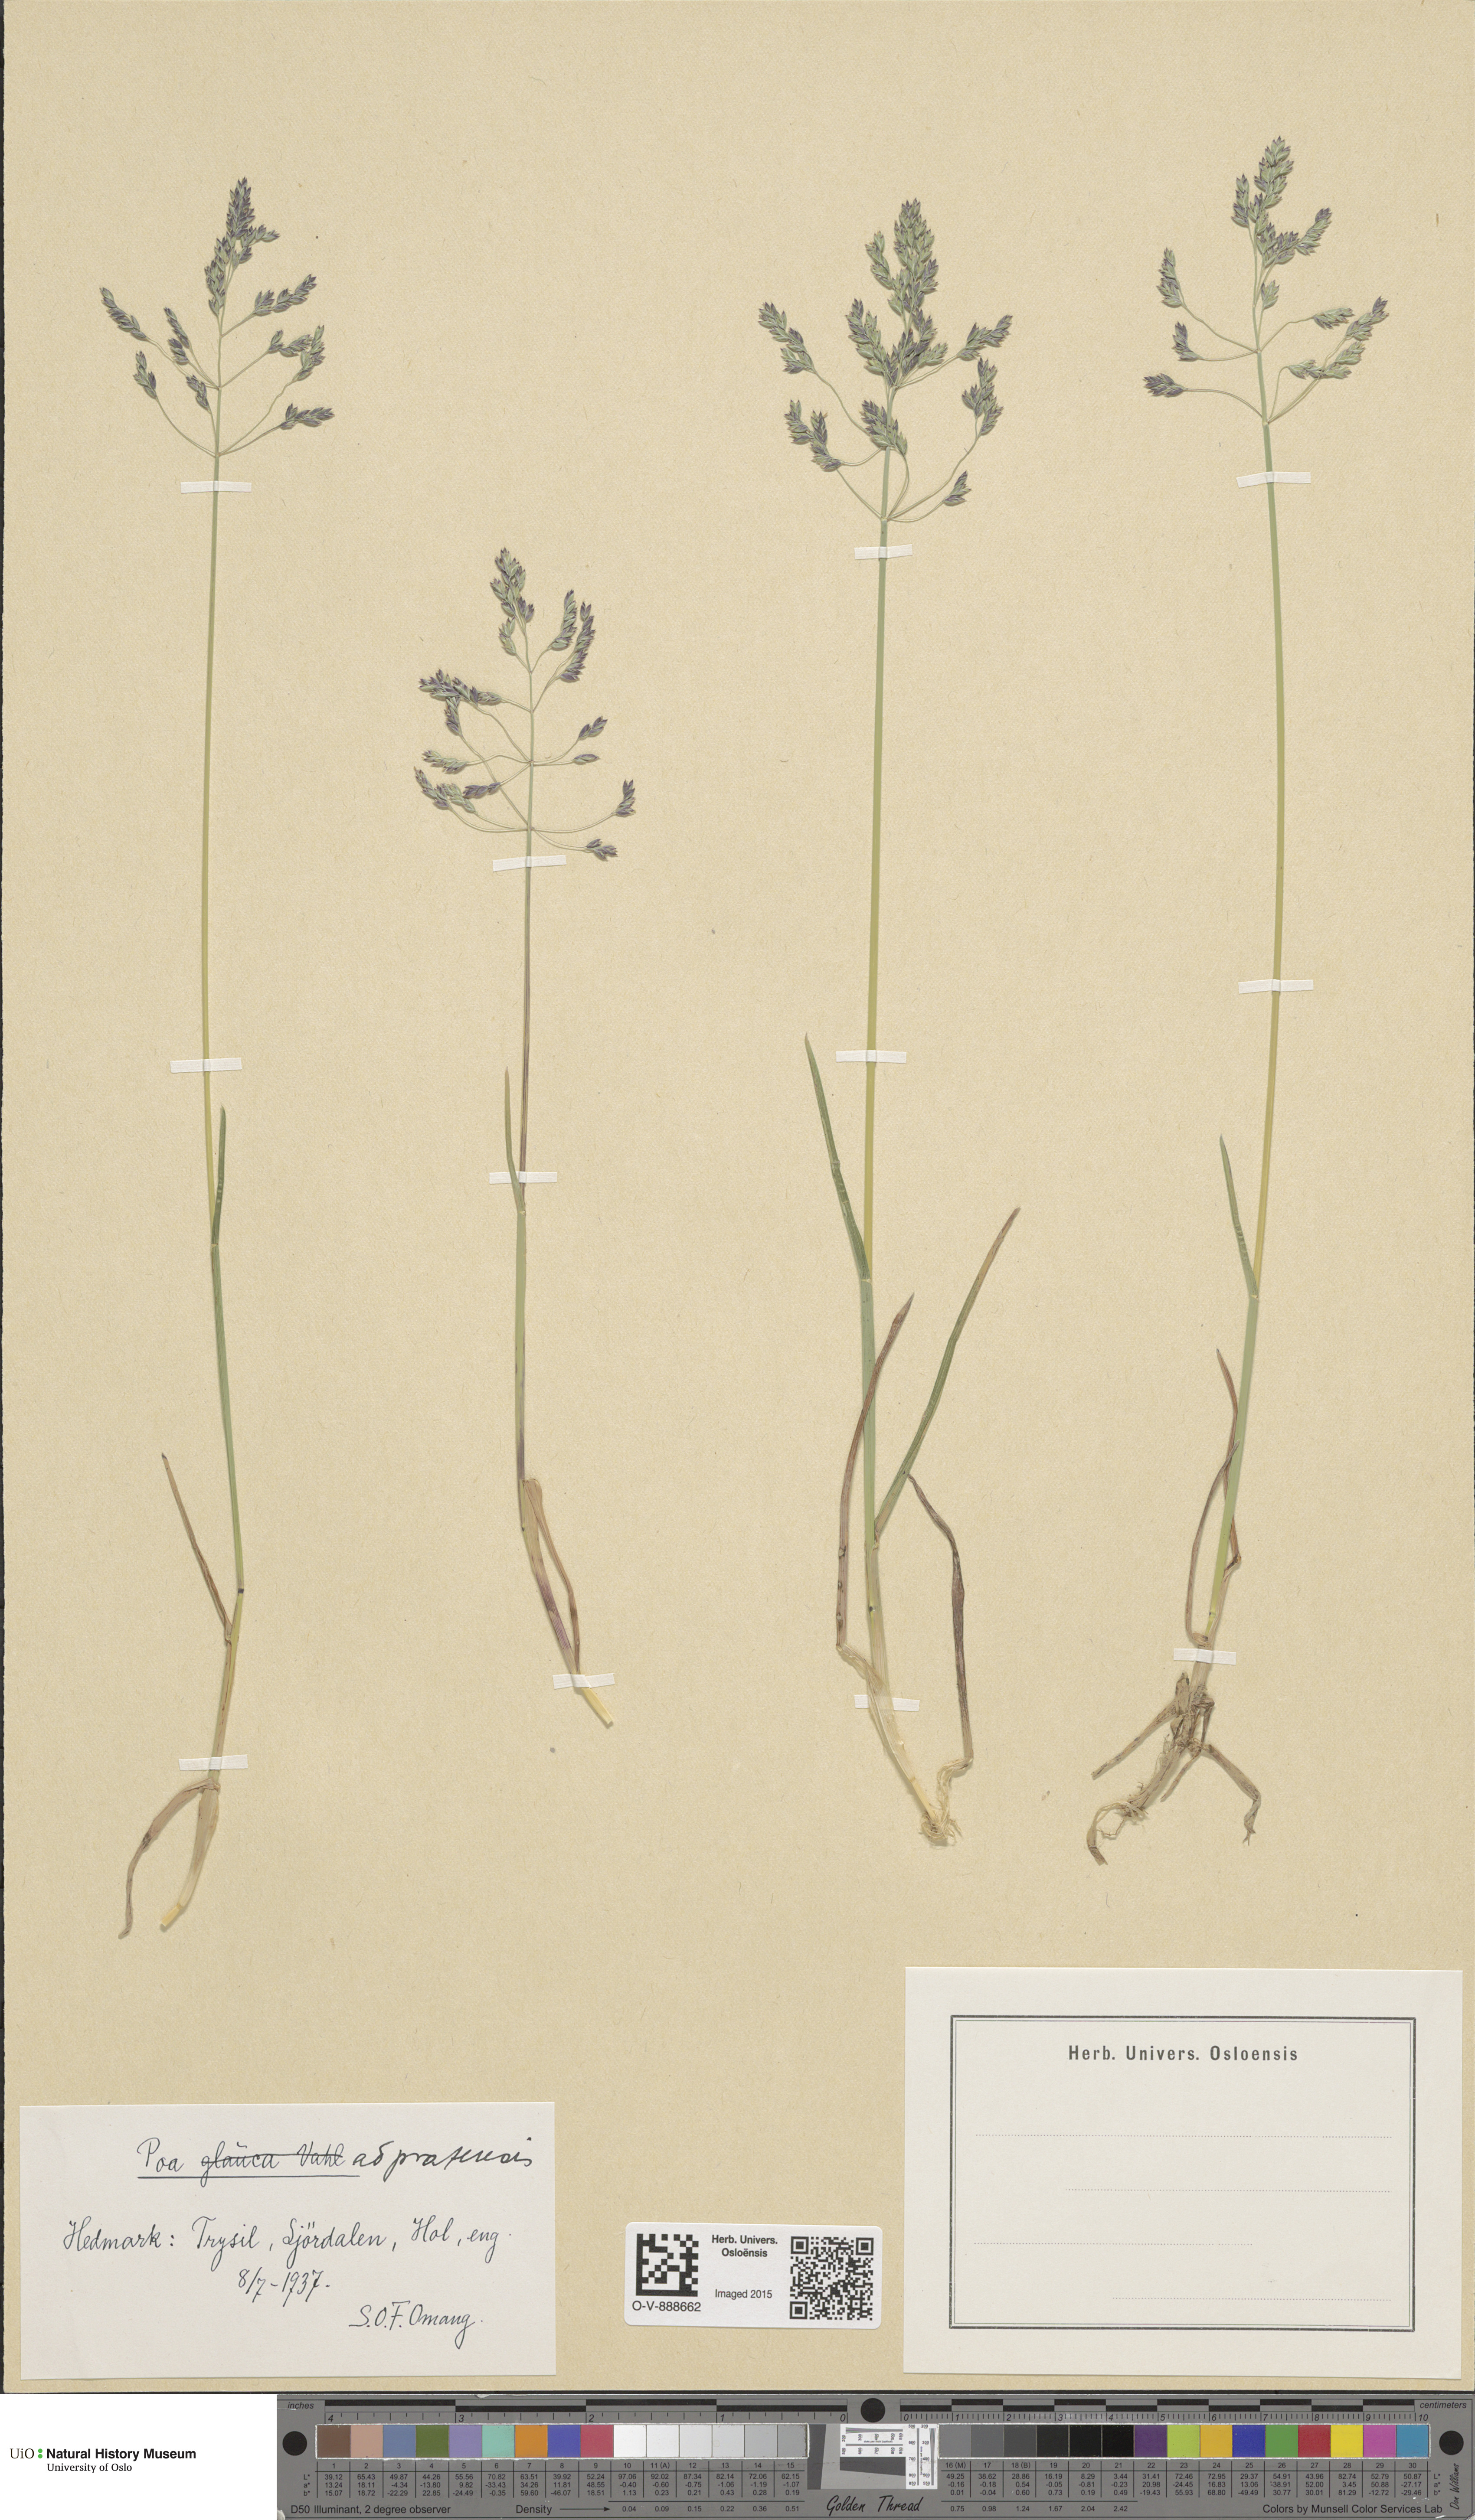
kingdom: Plantae
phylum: Tracheophyta
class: Liliopsida
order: Poales
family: Poaceae
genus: Poa
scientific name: Poa pratensis
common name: Kentucky bluegrass
